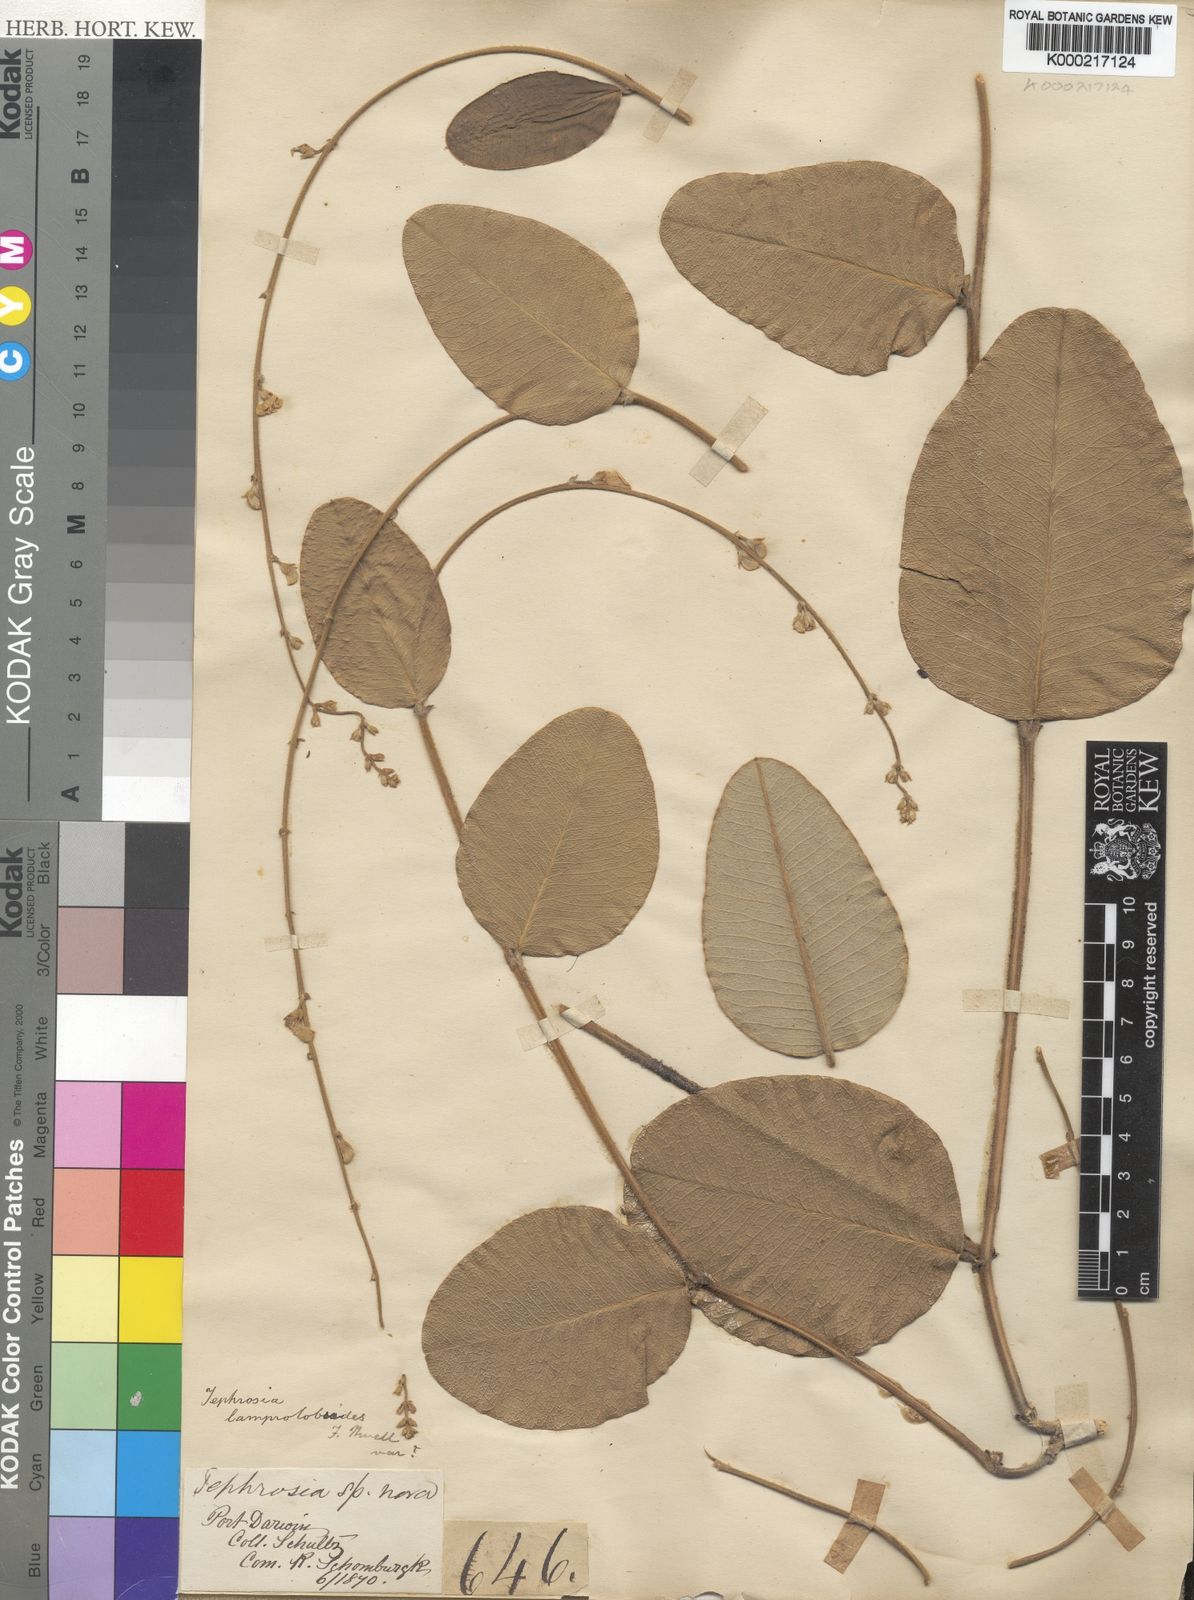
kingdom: Plantae
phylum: Tracheophyta
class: Magnoliopsida
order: Fabales
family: Fabaceae
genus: Tephrosia
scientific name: Tephrosia lamprolobioides
